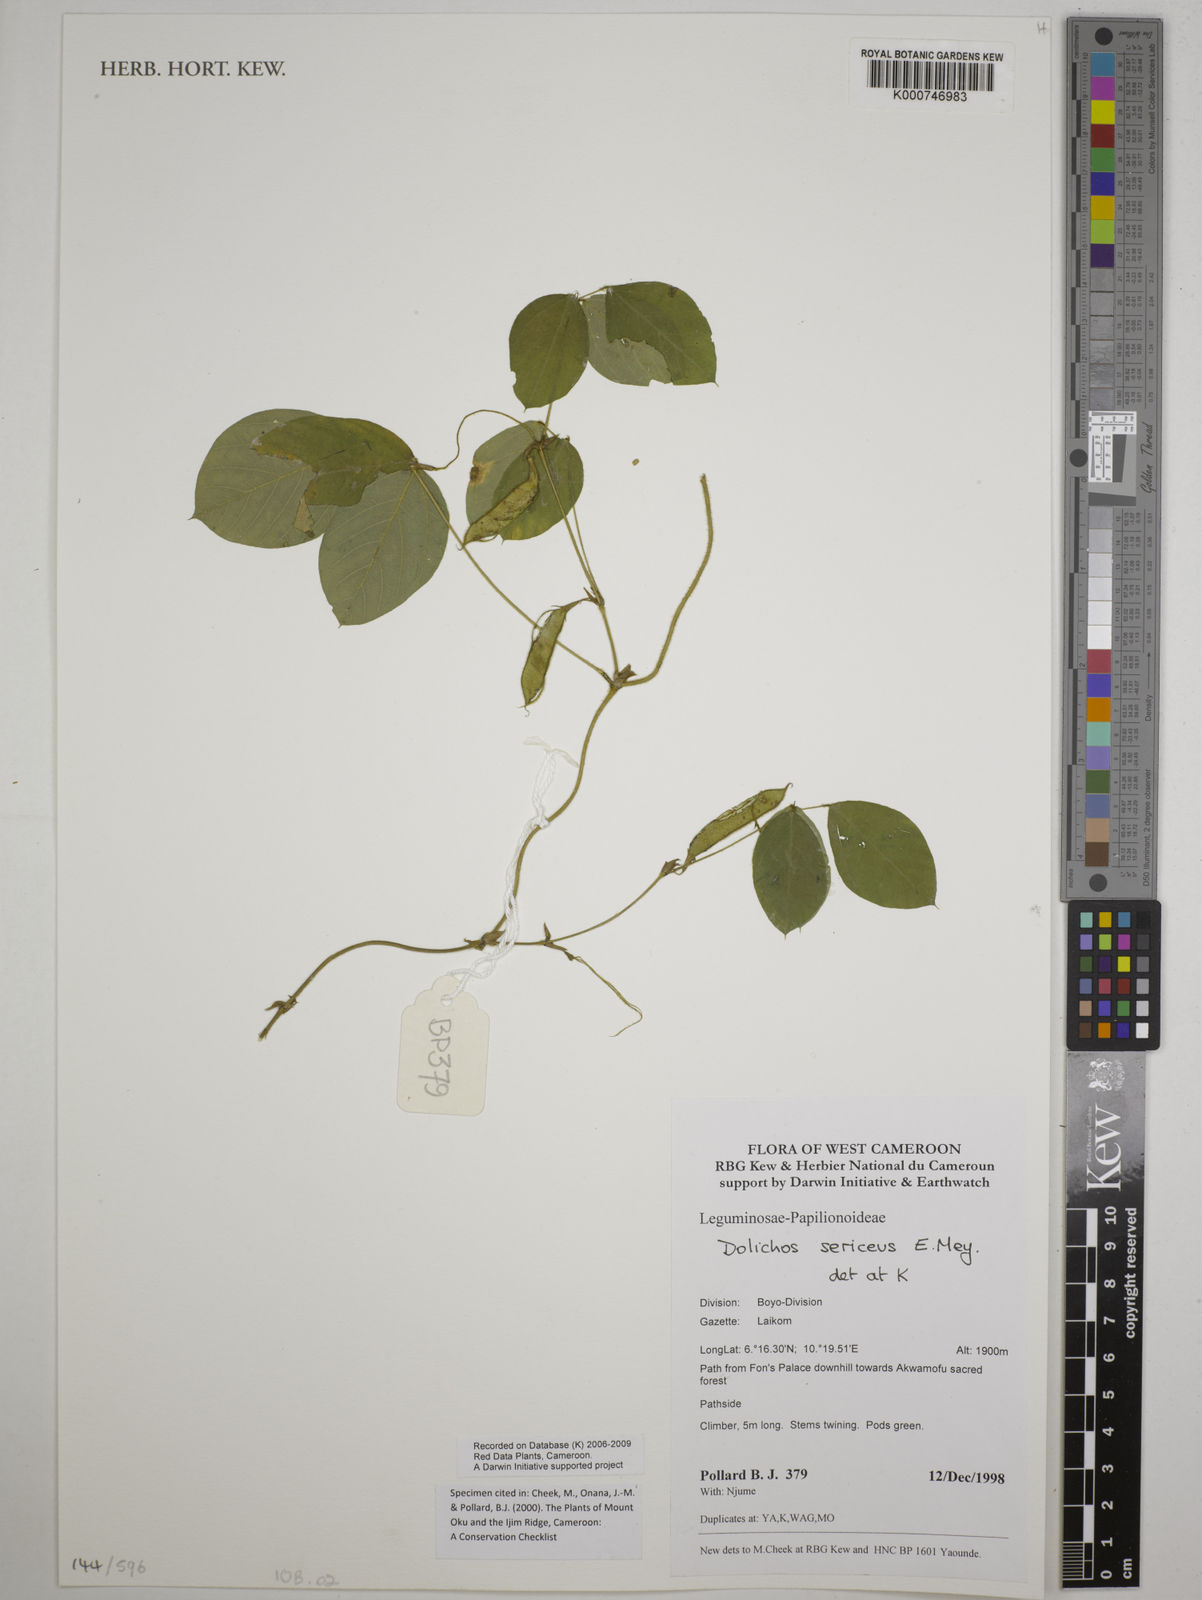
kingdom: Plantae
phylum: Tracheophyta
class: Magnoliopsida
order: Fabales
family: Fabaceae
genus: Dolichos
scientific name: Dolichos sericeus
